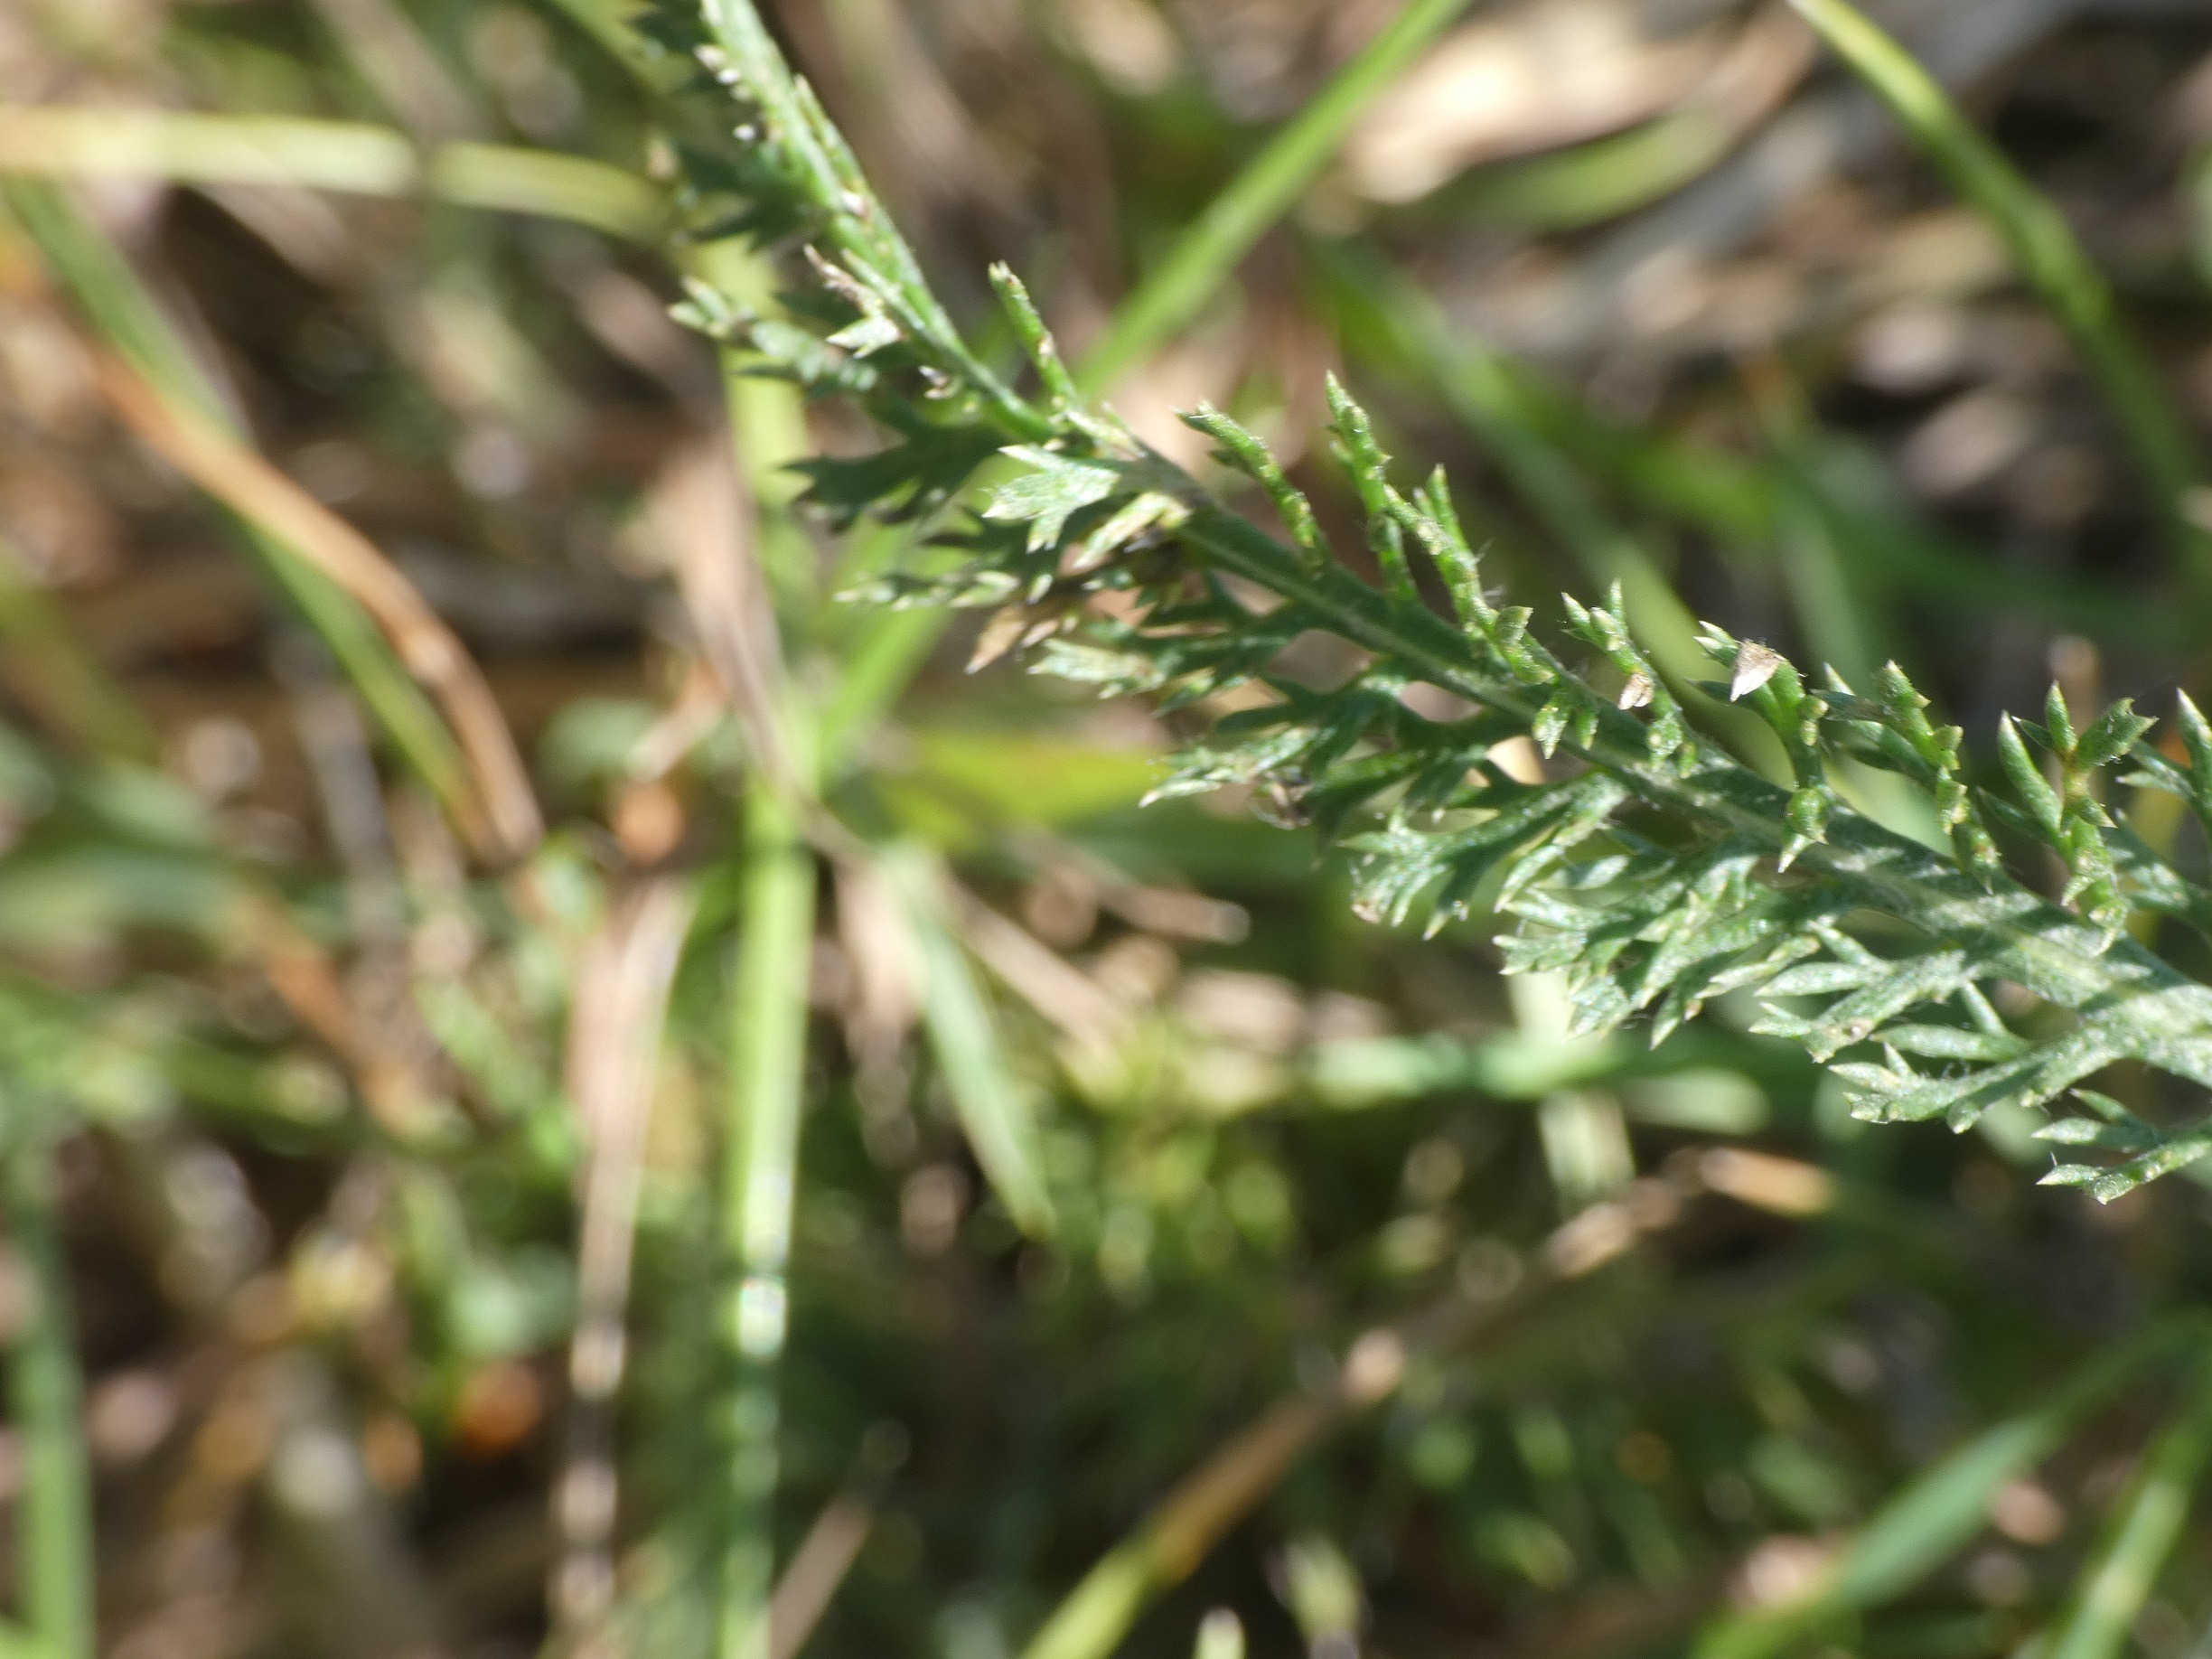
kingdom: Plantae
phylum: Tracheophyta
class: Magnoliopsida
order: Asterales
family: Asteraceae
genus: Achillea
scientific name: Achillea millefolium
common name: Almindelig røllike
